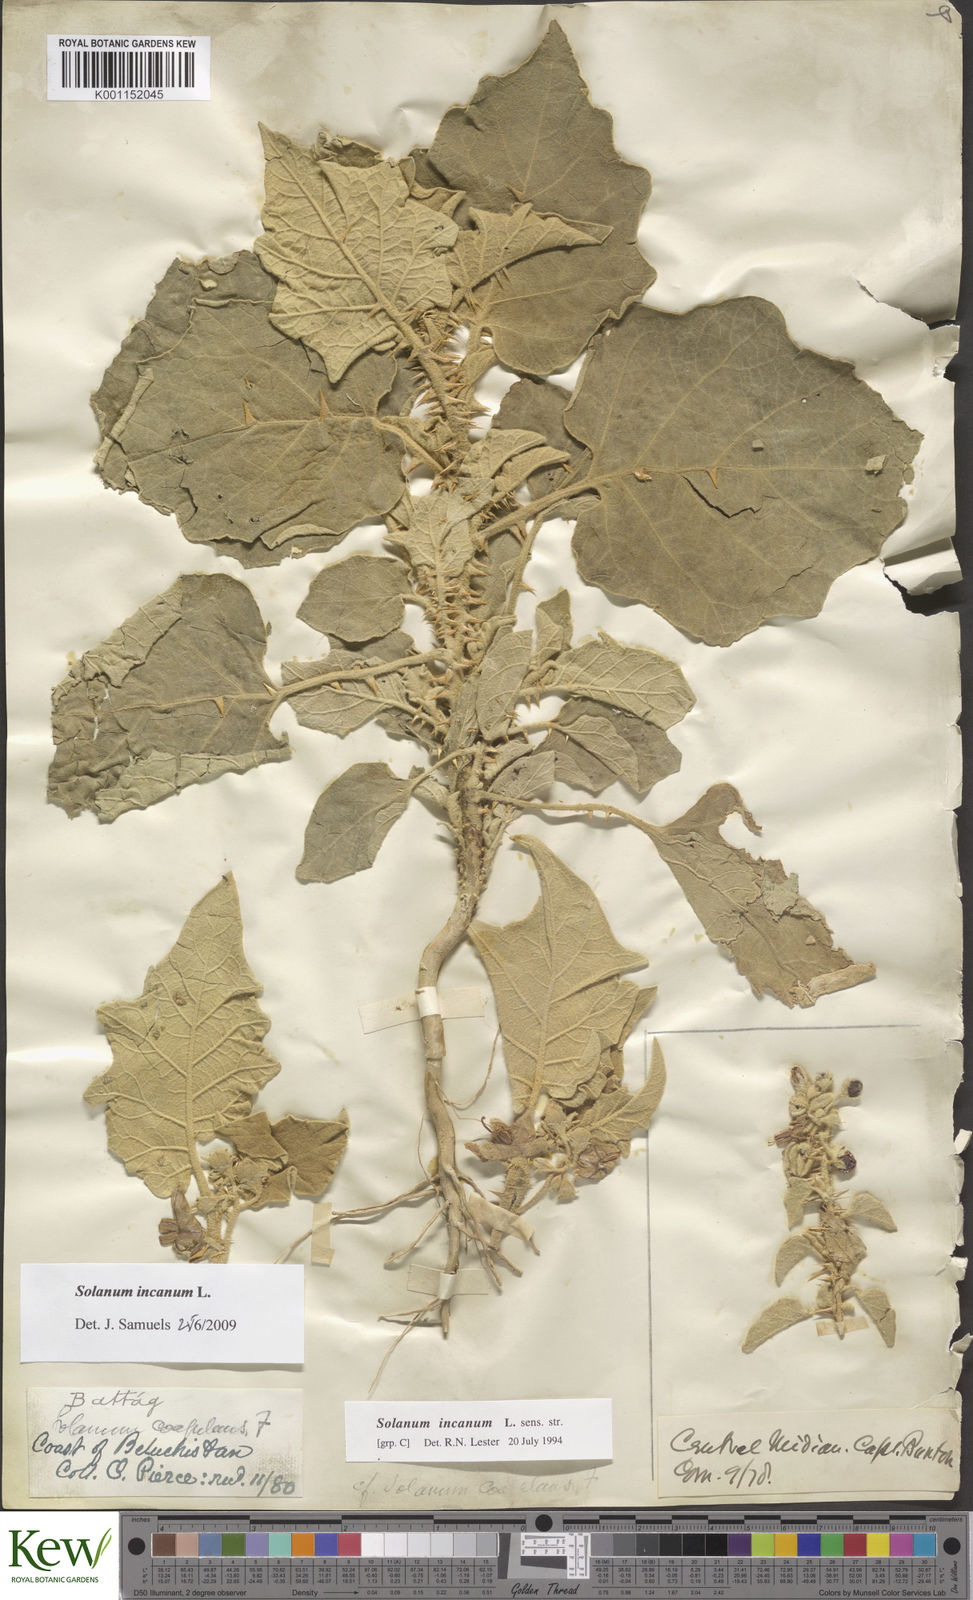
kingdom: Plantae
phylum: Tracheophyta
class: Magnoliopsida
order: Solanales
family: Solanaceae
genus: Solanum
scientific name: Solanum coagulans
